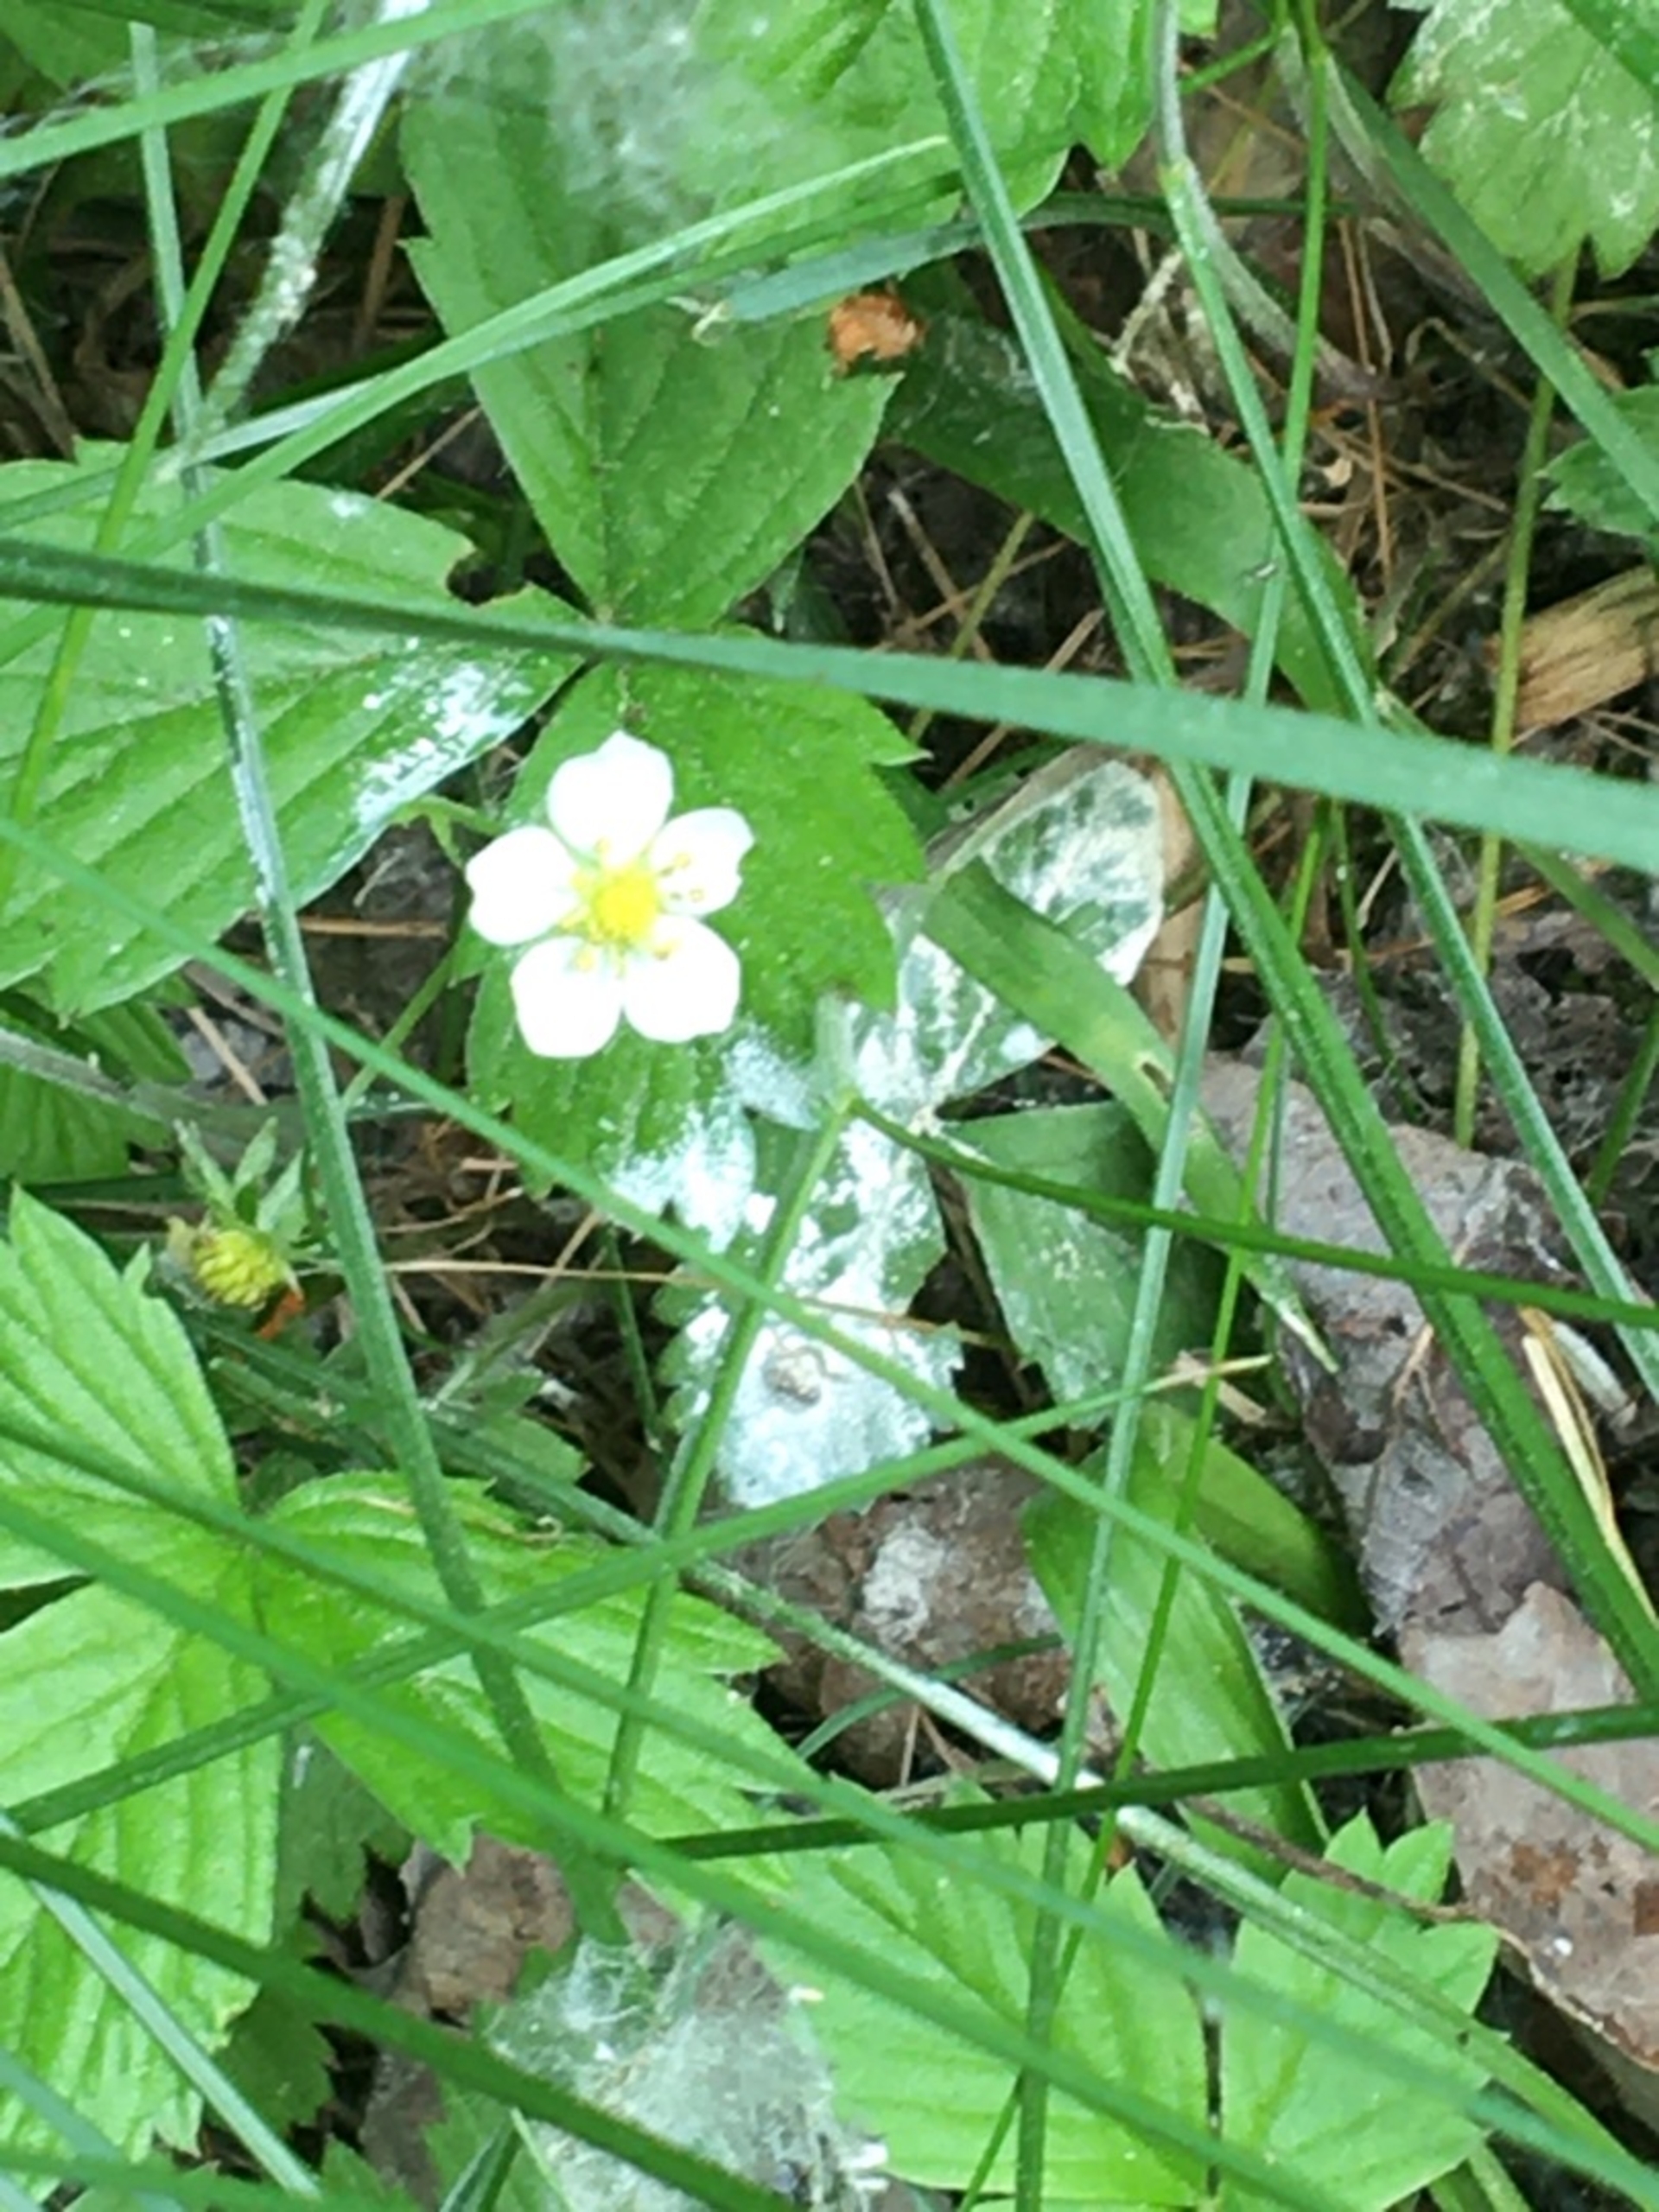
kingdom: Plantae
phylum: Tracheophyta
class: Magnoliopsida
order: Rosales
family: Rosaceae
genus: Fragaria
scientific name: Fragaria
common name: Jordbærslægten
